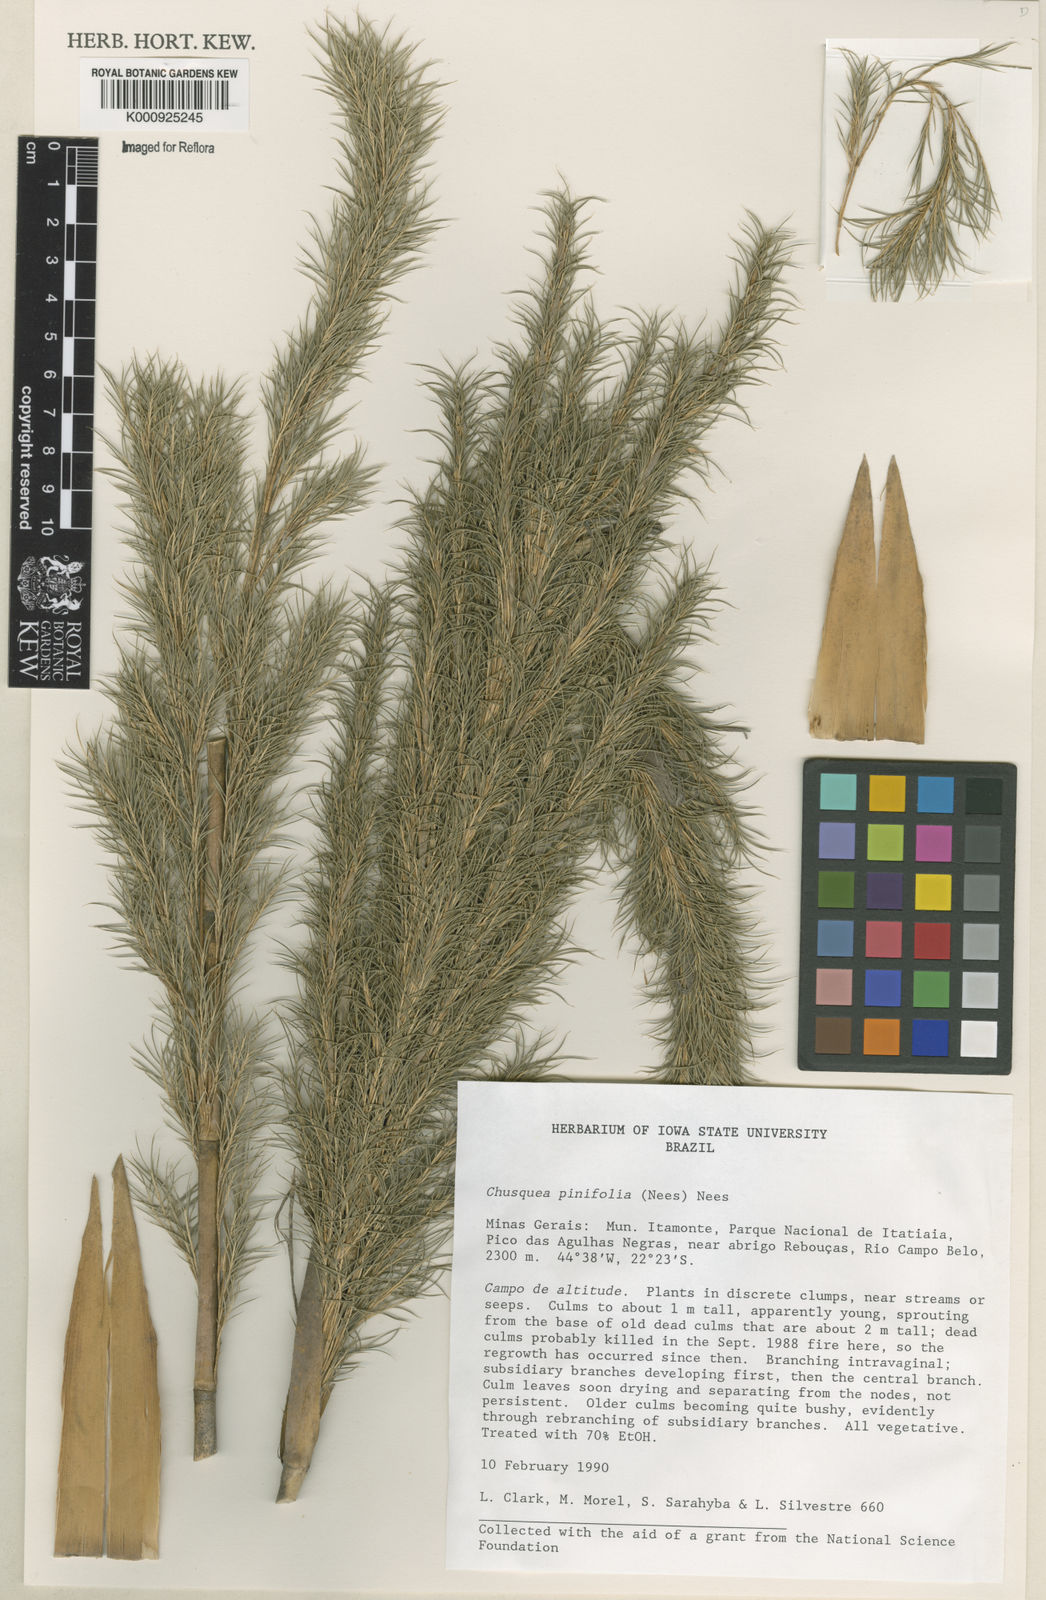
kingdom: Plantae
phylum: Tracheophyta
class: Liliopsida
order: Poales
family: Poaceae
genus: Chusquea
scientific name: Chusquea pinifolia
